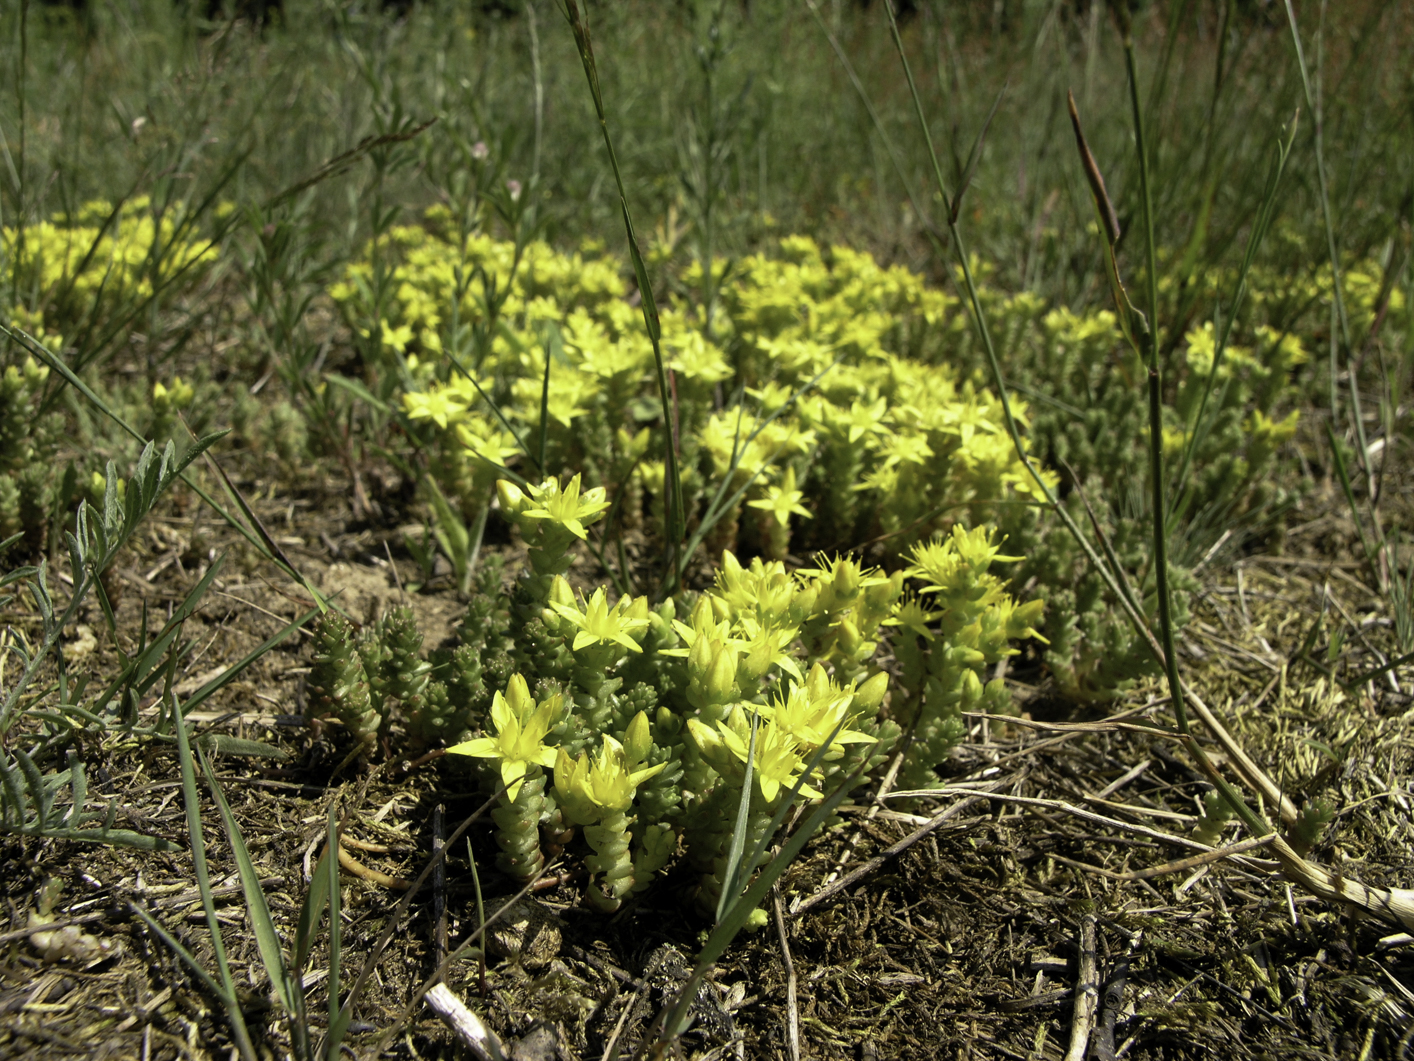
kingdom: Plantae
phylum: Tracheophyta
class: Magnoliopsida
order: Saxifragales
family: Crassulaceae
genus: Sedum
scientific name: Sedum acre
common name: Biting stonecrop
